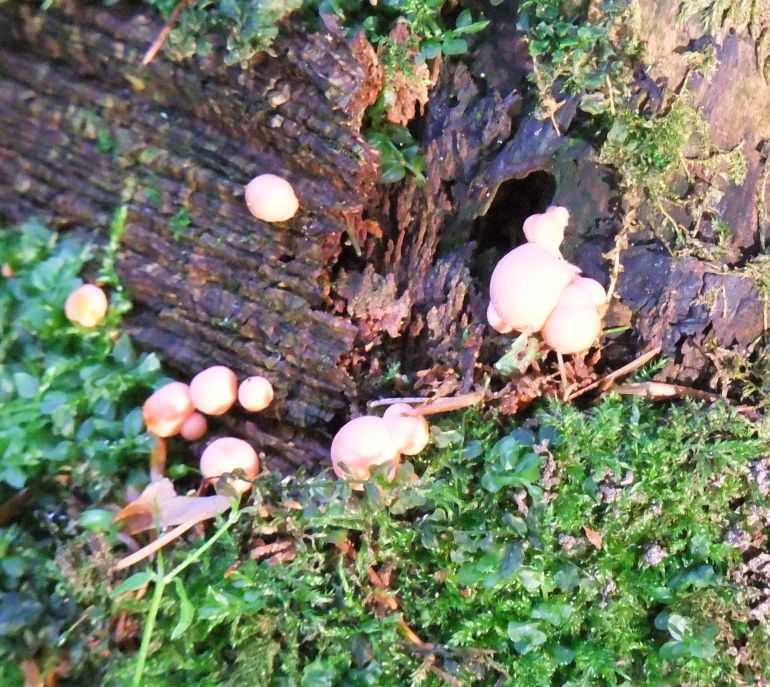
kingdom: Protozoa
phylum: Mycetozoa
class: Myxomycetes
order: Cribrariales
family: Tubiferaceae
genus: Lycogala
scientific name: Lycogala epidendrum
